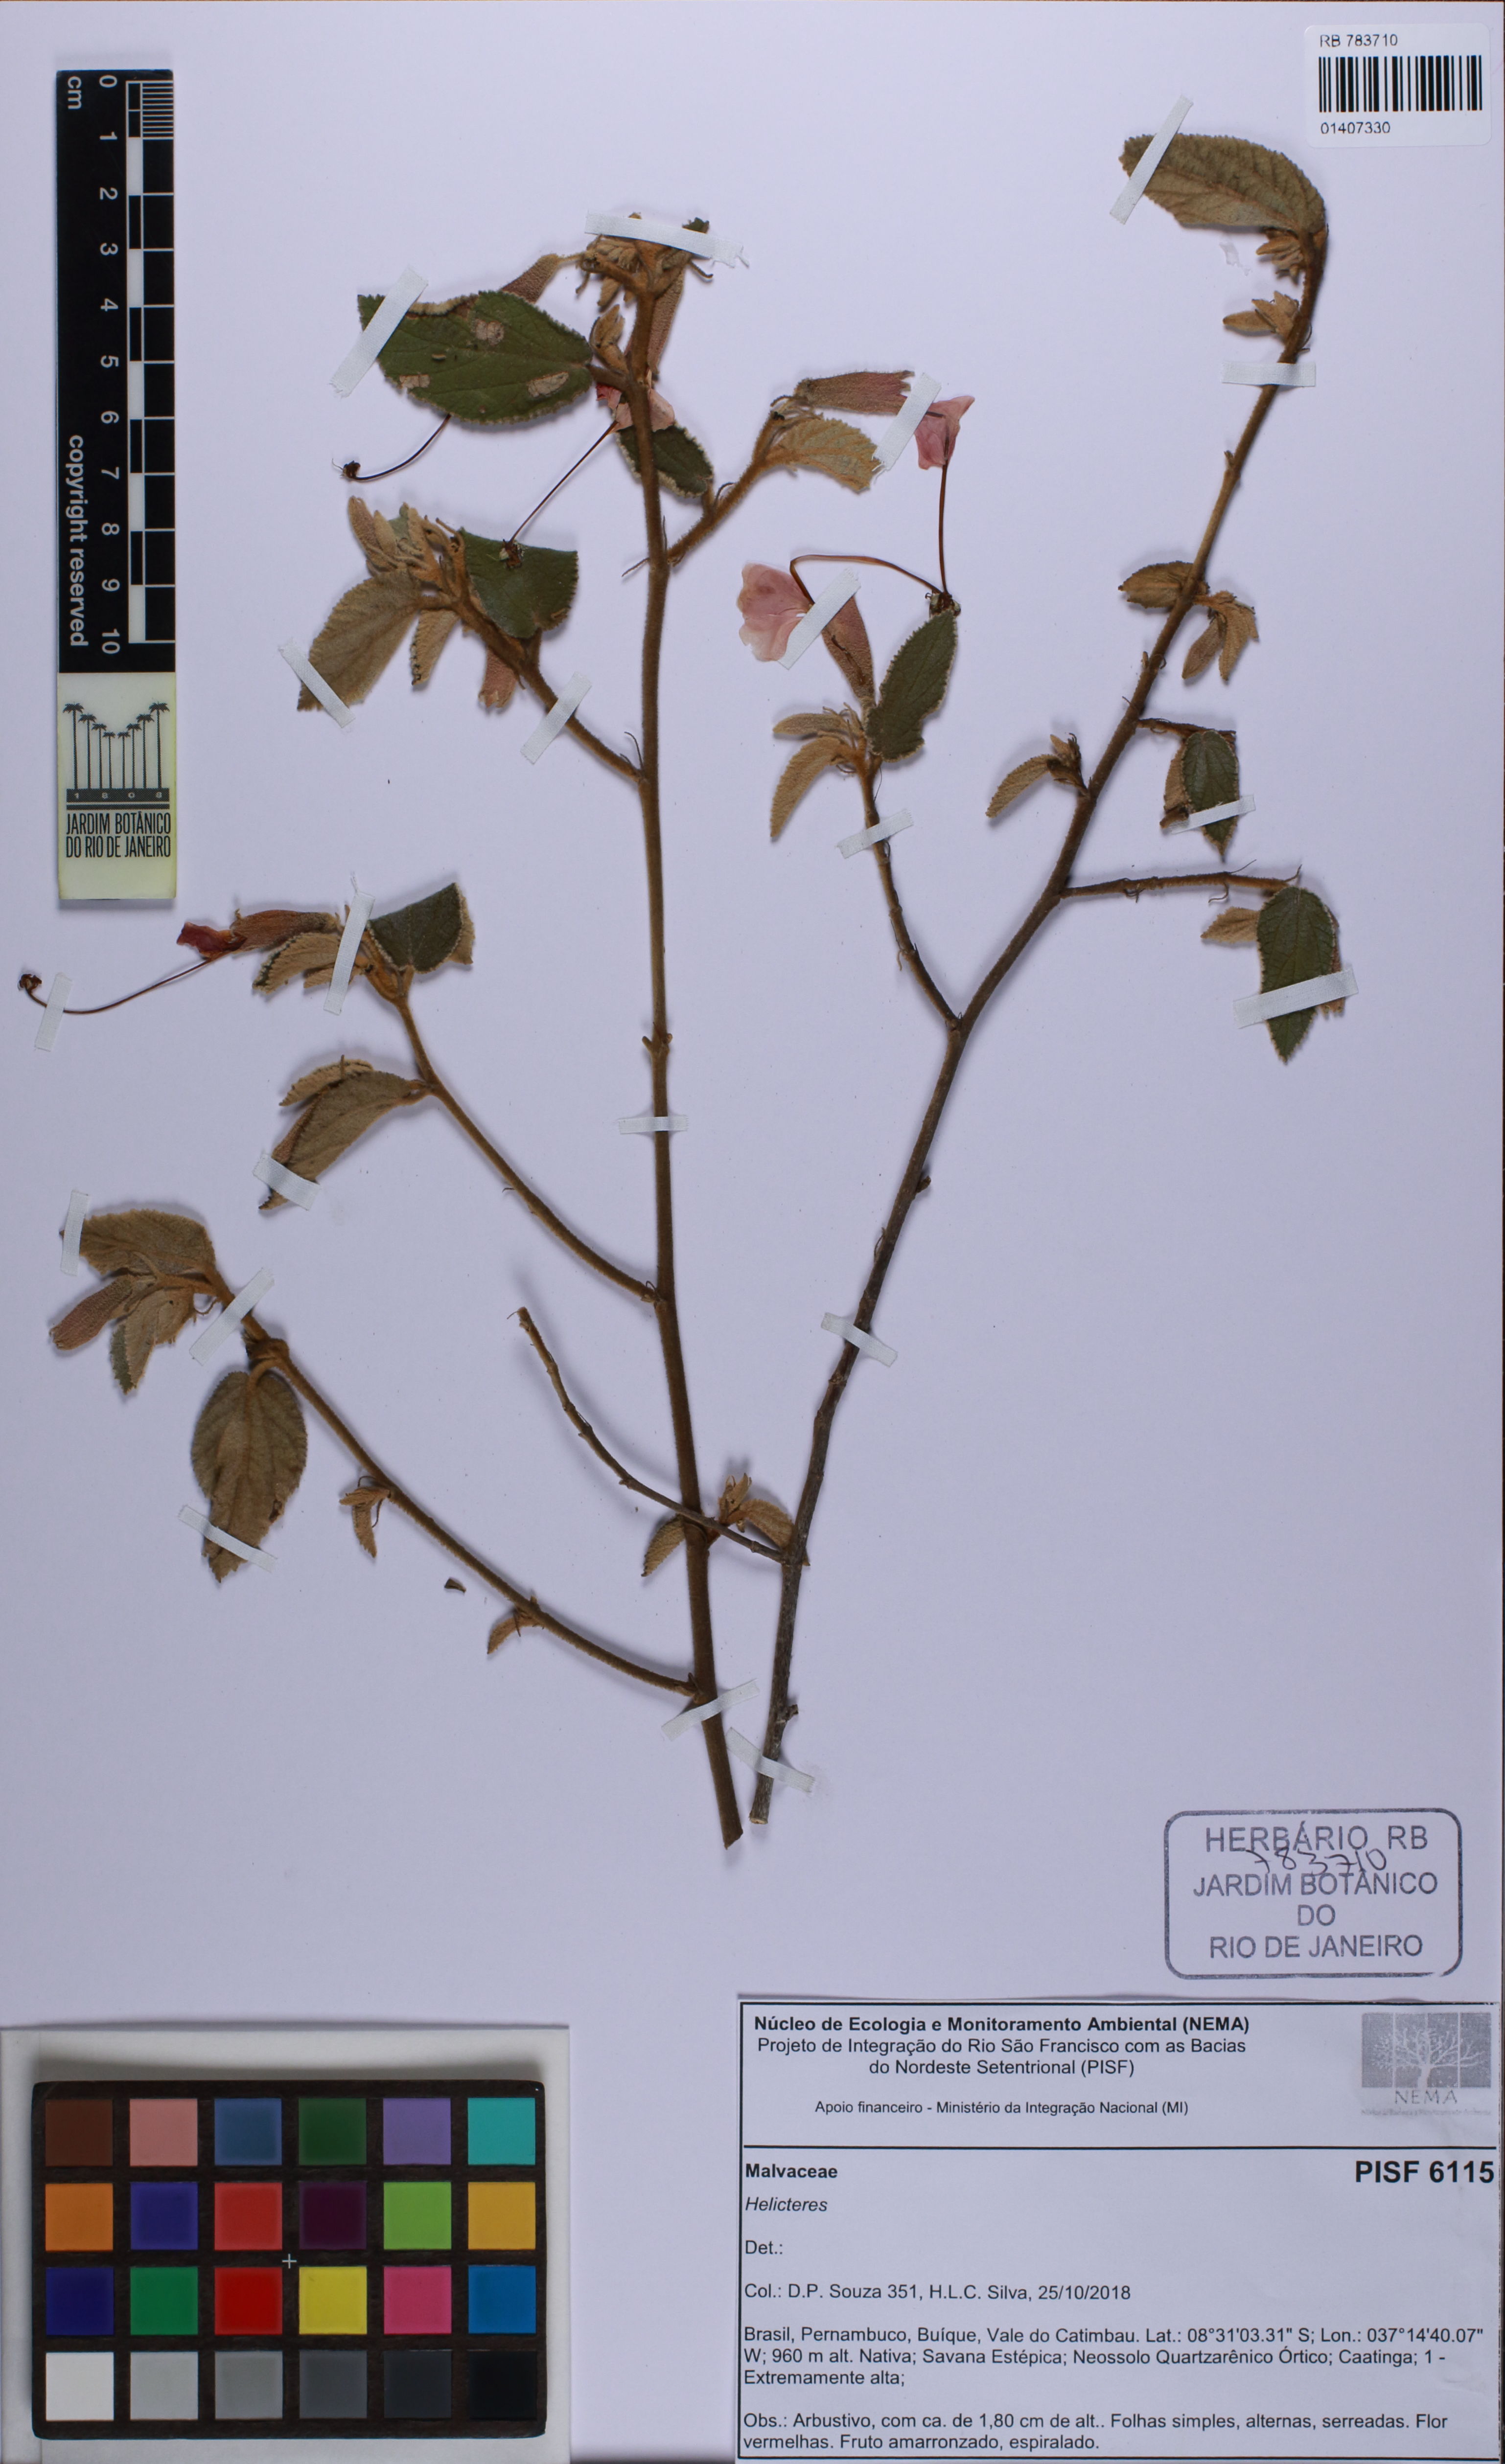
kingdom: Plantae
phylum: Tracheophyta
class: Magnoliopsida
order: Malvales
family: Malvaceae
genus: Helicteres
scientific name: Helicteres
